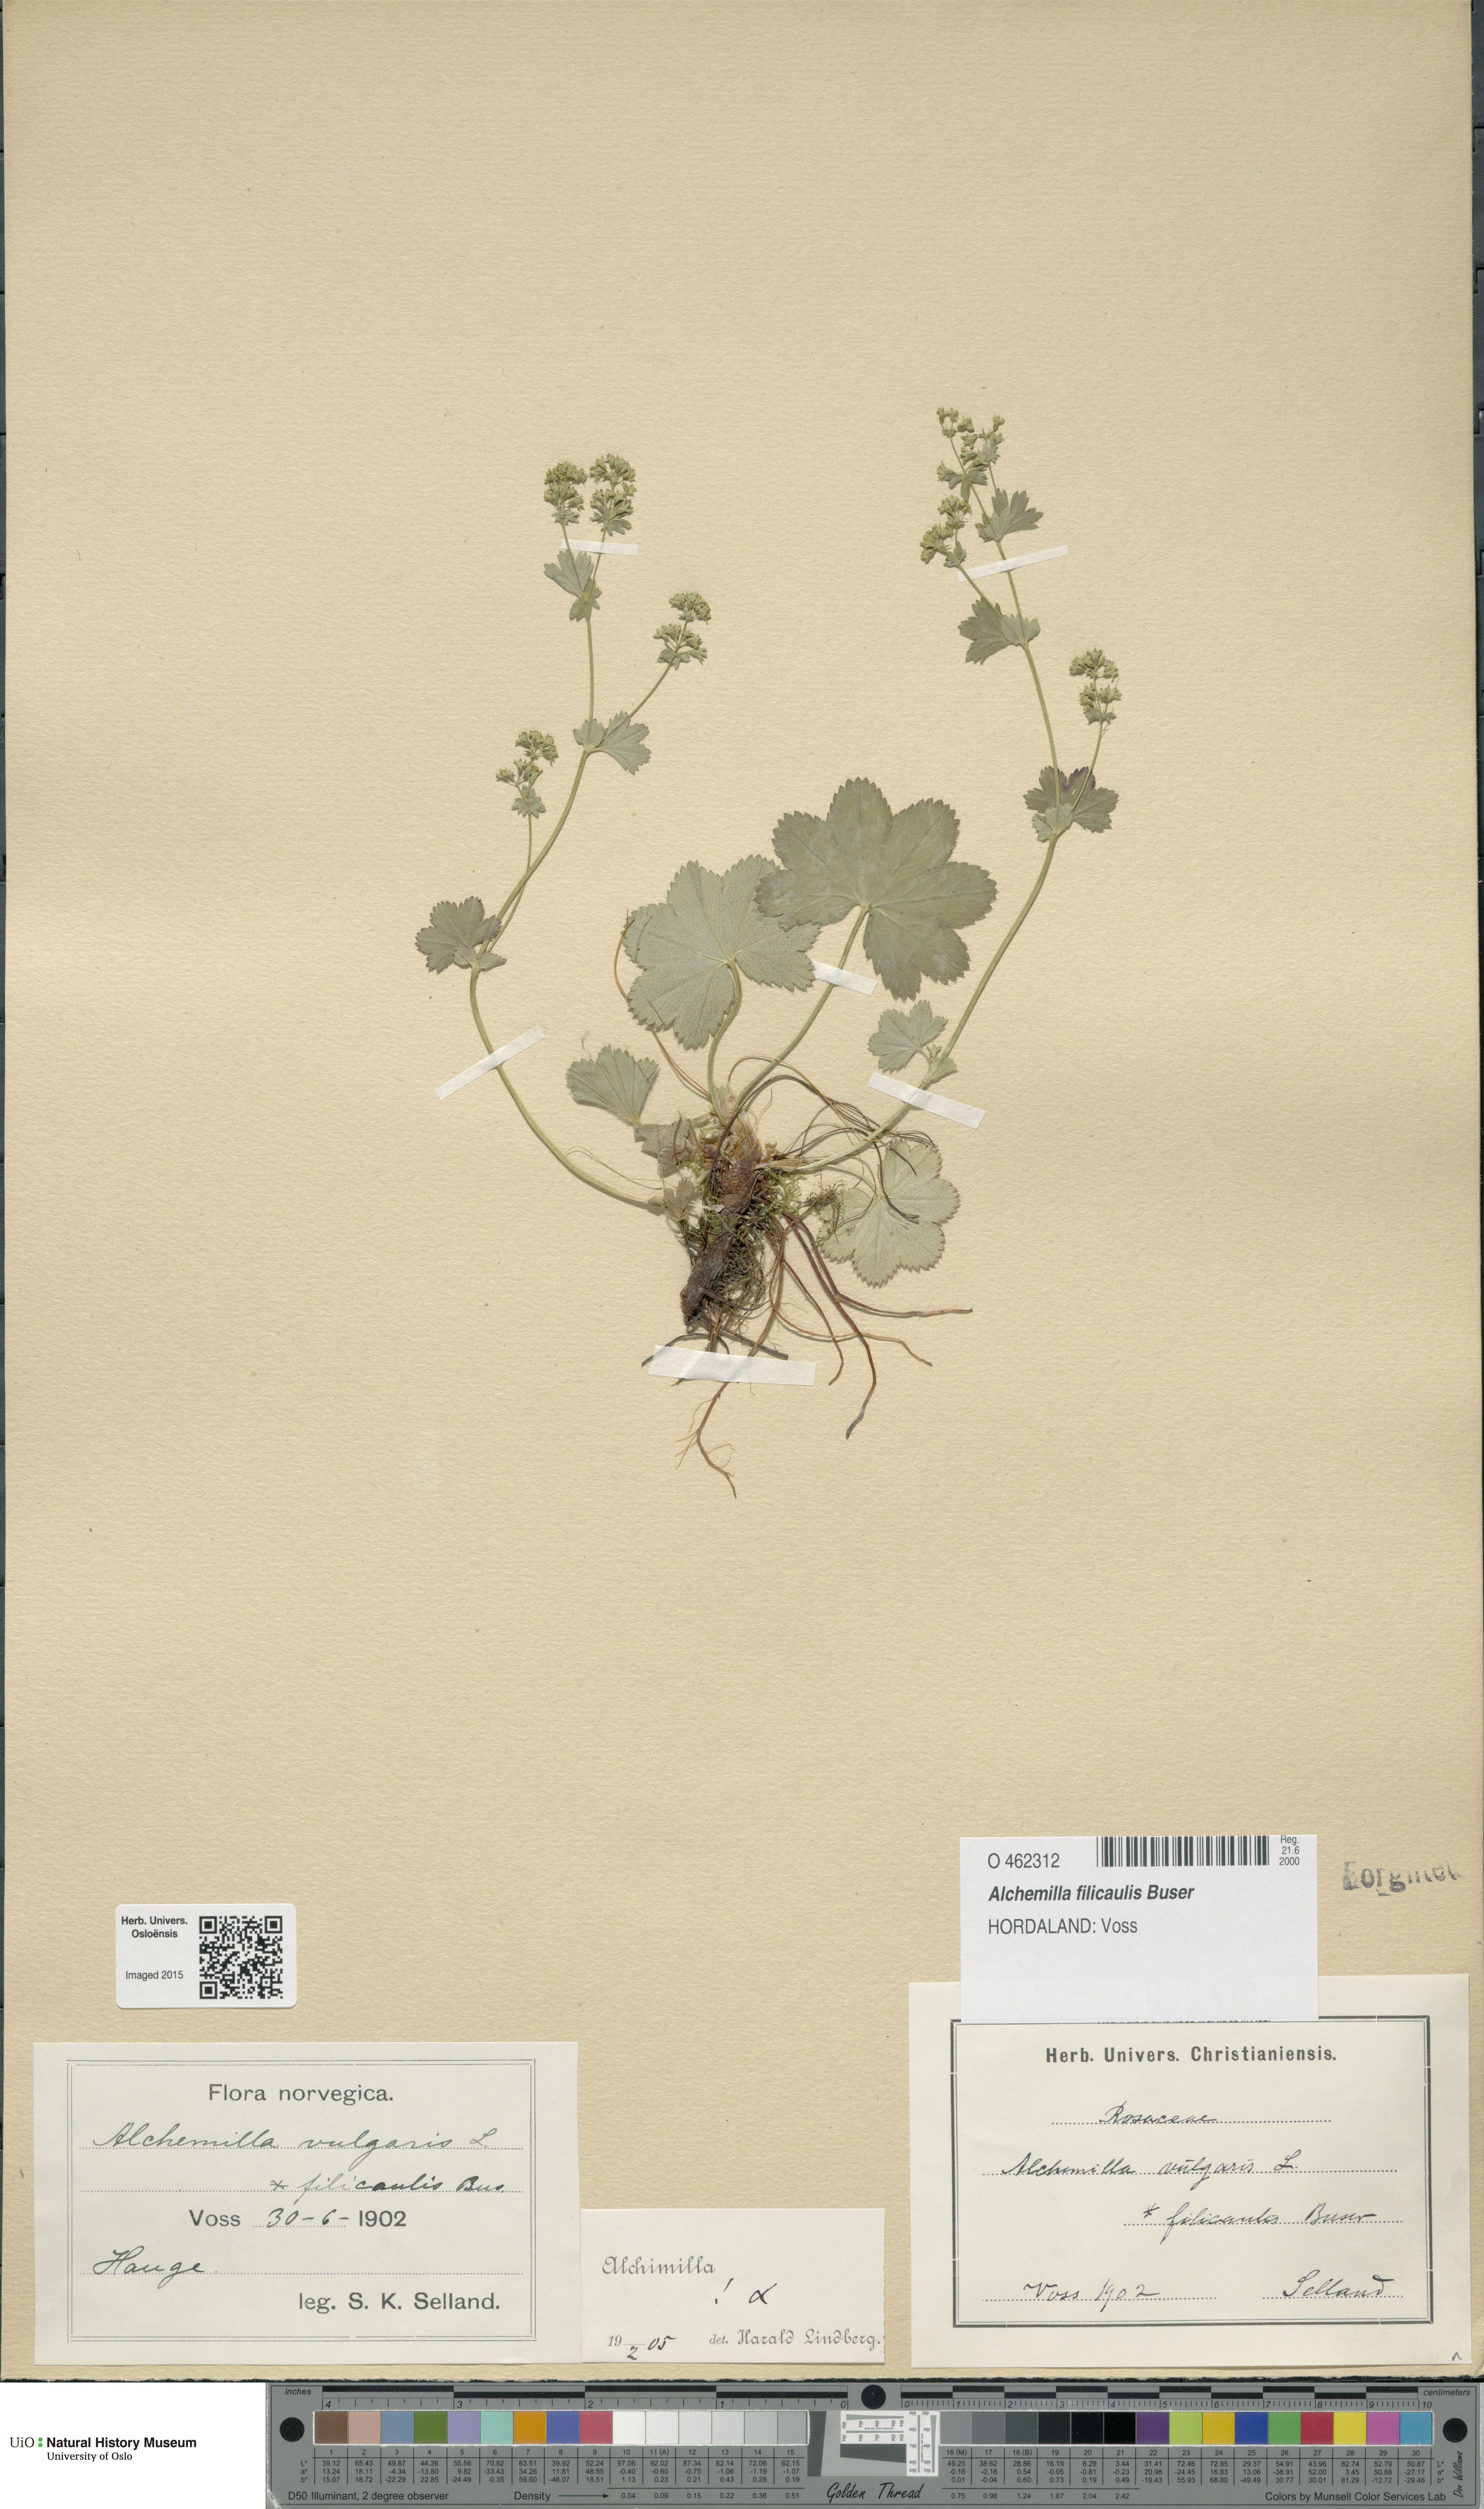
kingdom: Plantae
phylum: Tracheophyta
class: Magnoliopsida
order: Rosales
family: Rosaceae
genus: Alchemilla
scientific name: Alchemilla filicaulis
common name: Hairy lady's-mantle
